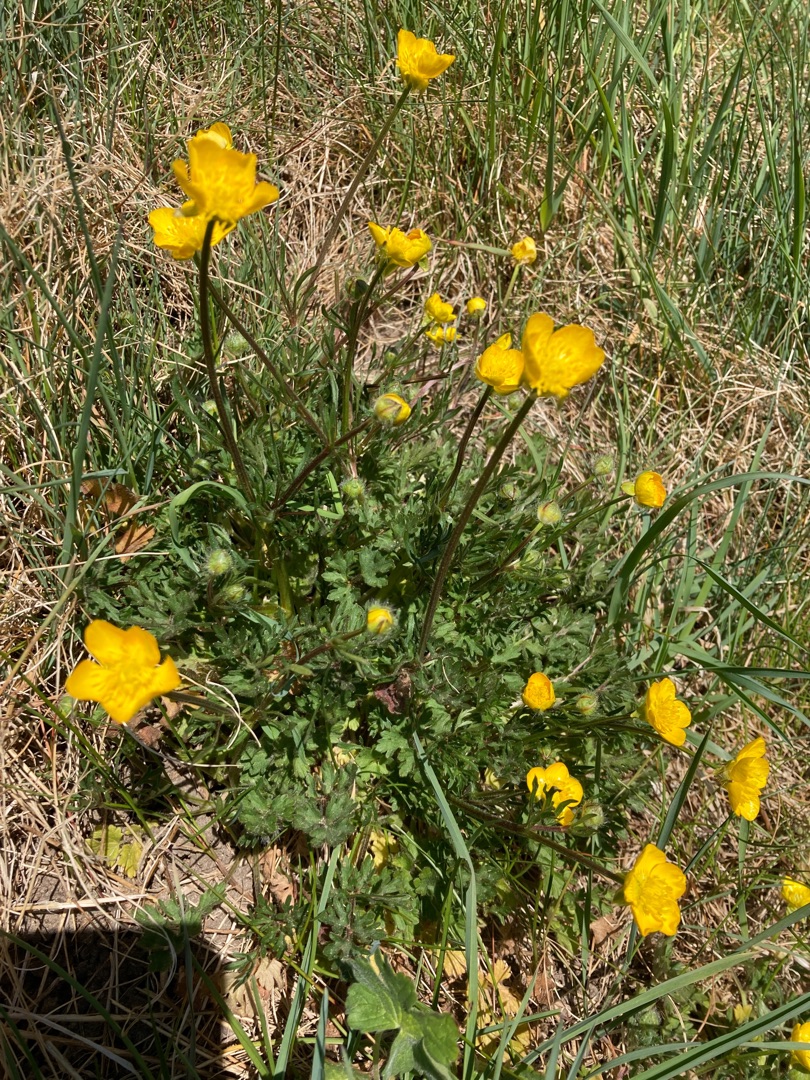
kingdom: Plantae
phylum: Tracheophyta
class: Magnoliopsida
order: Ranunculales
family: Ranunculaceae
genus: Ranunculus
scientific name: Ranunculus bulbosus
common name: Knold-ranunkel
